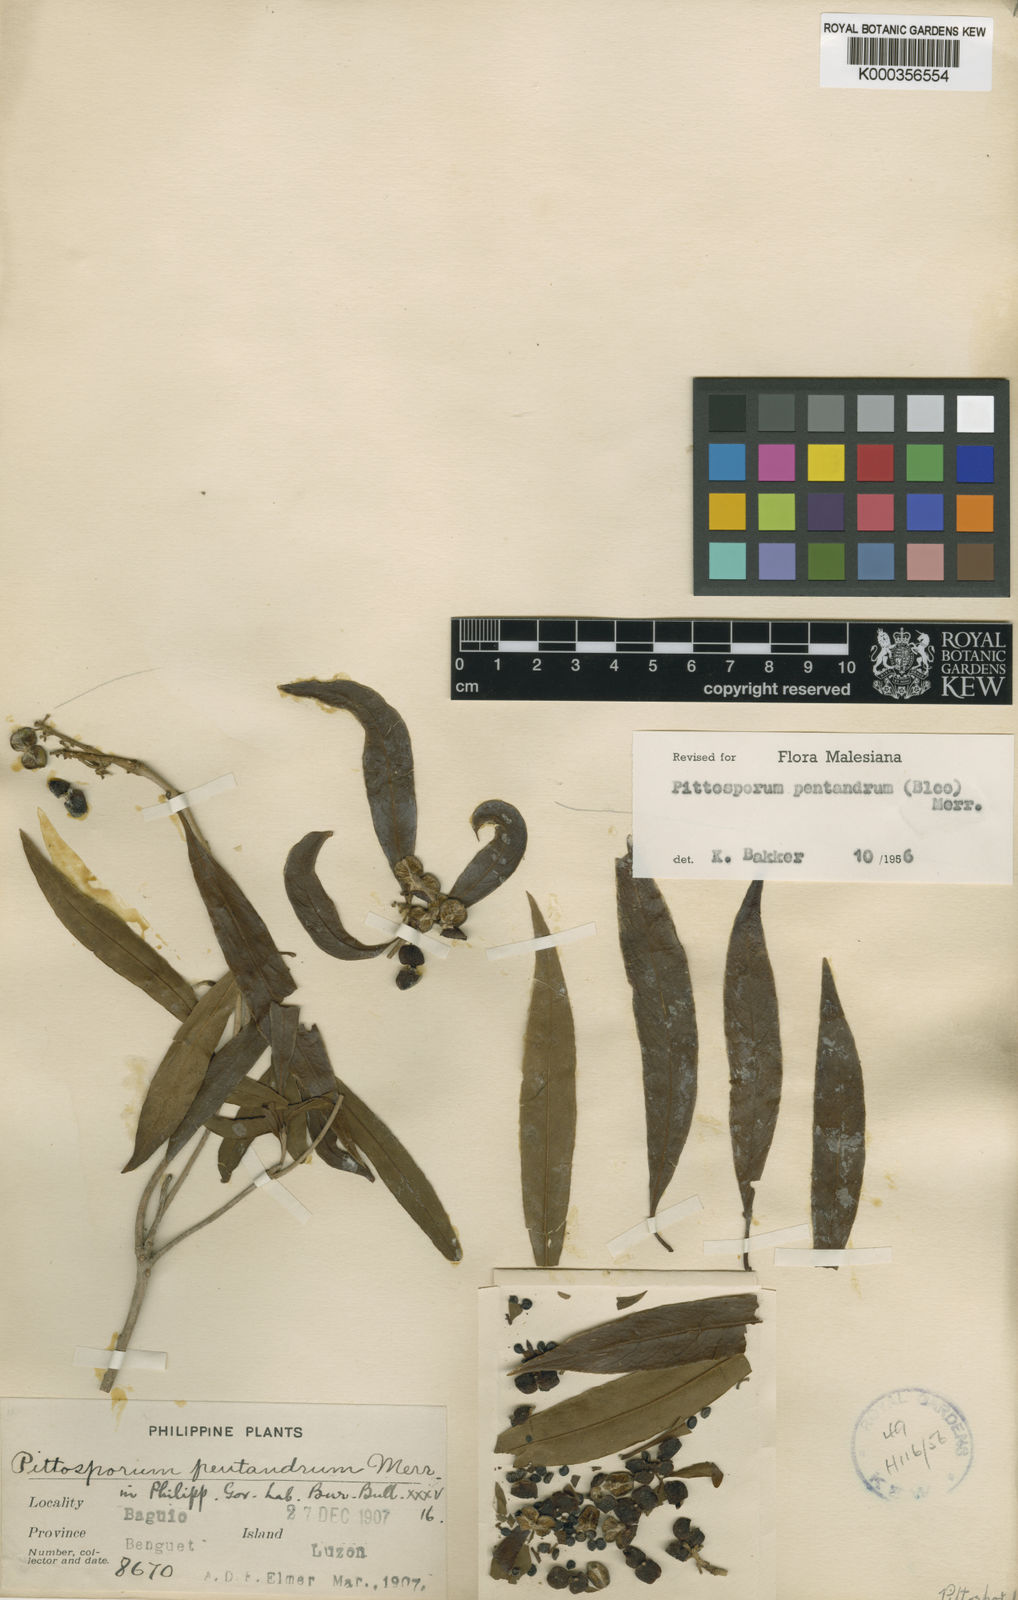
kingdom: Plantae
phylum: Tracheophyta
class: Magnoliopsida
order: Apiales
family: Pittosporaceae
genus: Pittosporum
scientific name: Pittosporum pentandrum
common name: Taiwanese cheesewood
